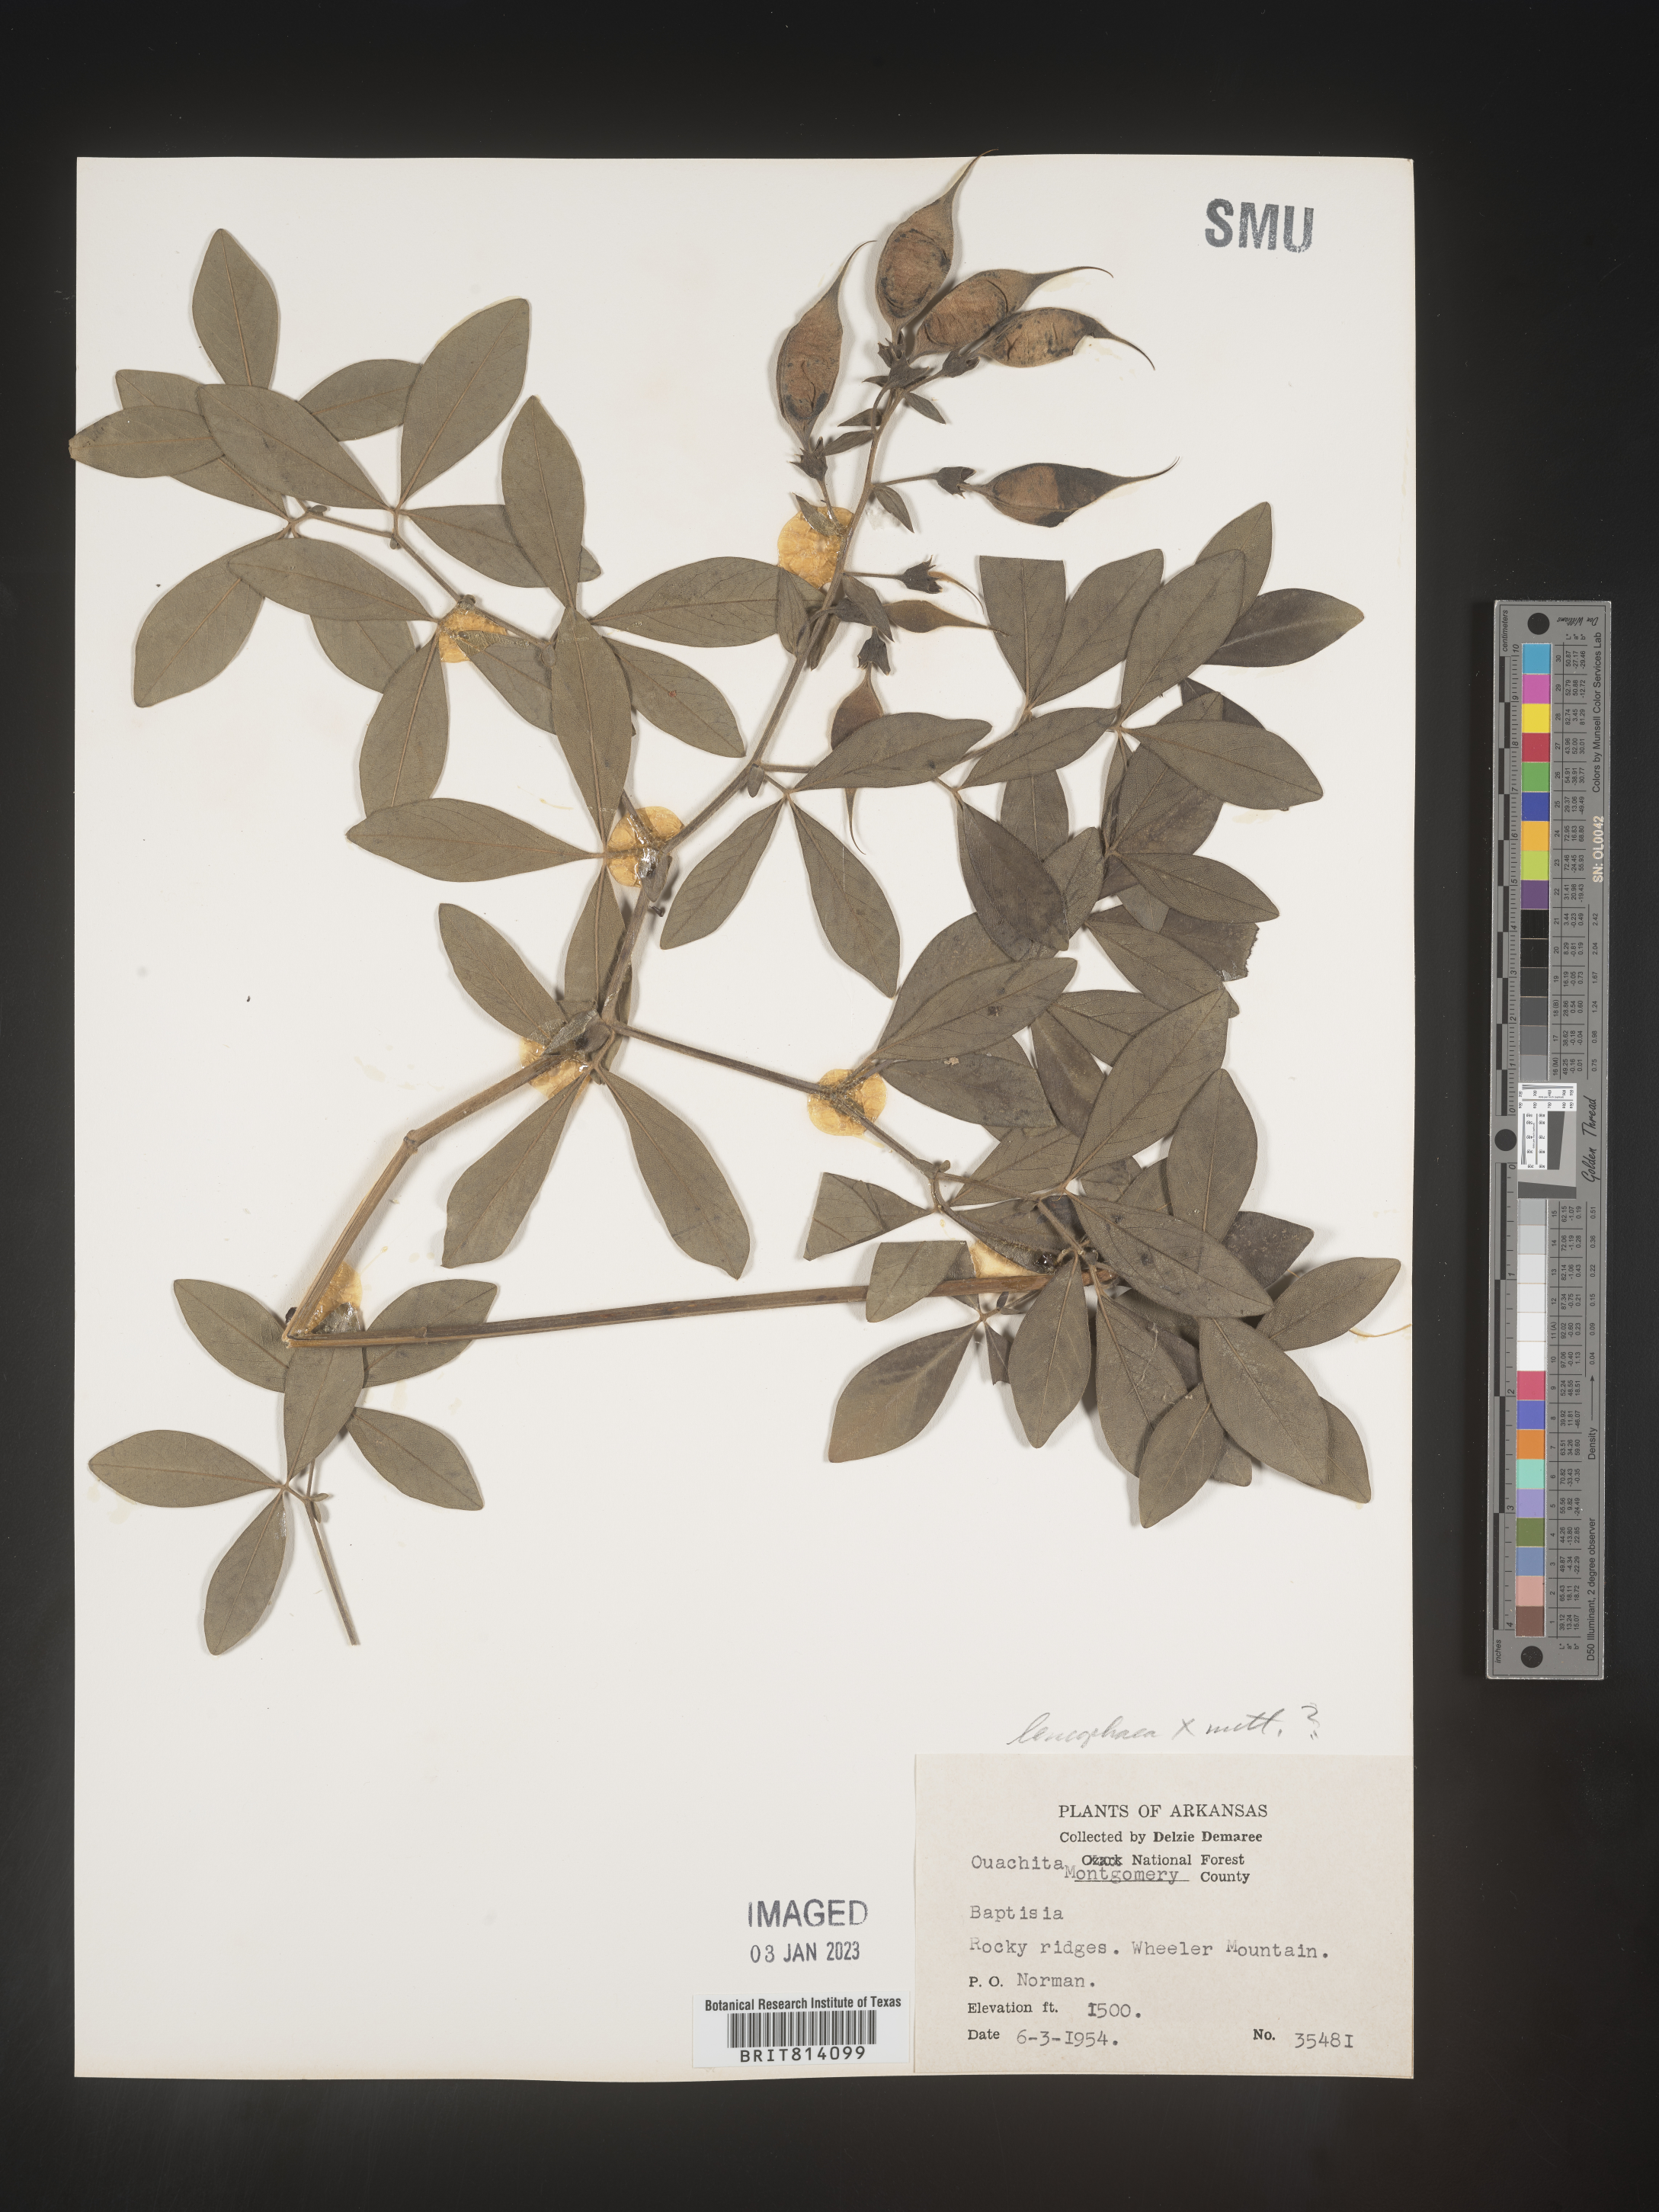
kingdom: Plantae
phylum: Tracheophyta
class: Magnoliopsida
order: Fabales
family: Fabaceae
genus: Baptisia
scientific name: Baptisia nuttalliana
